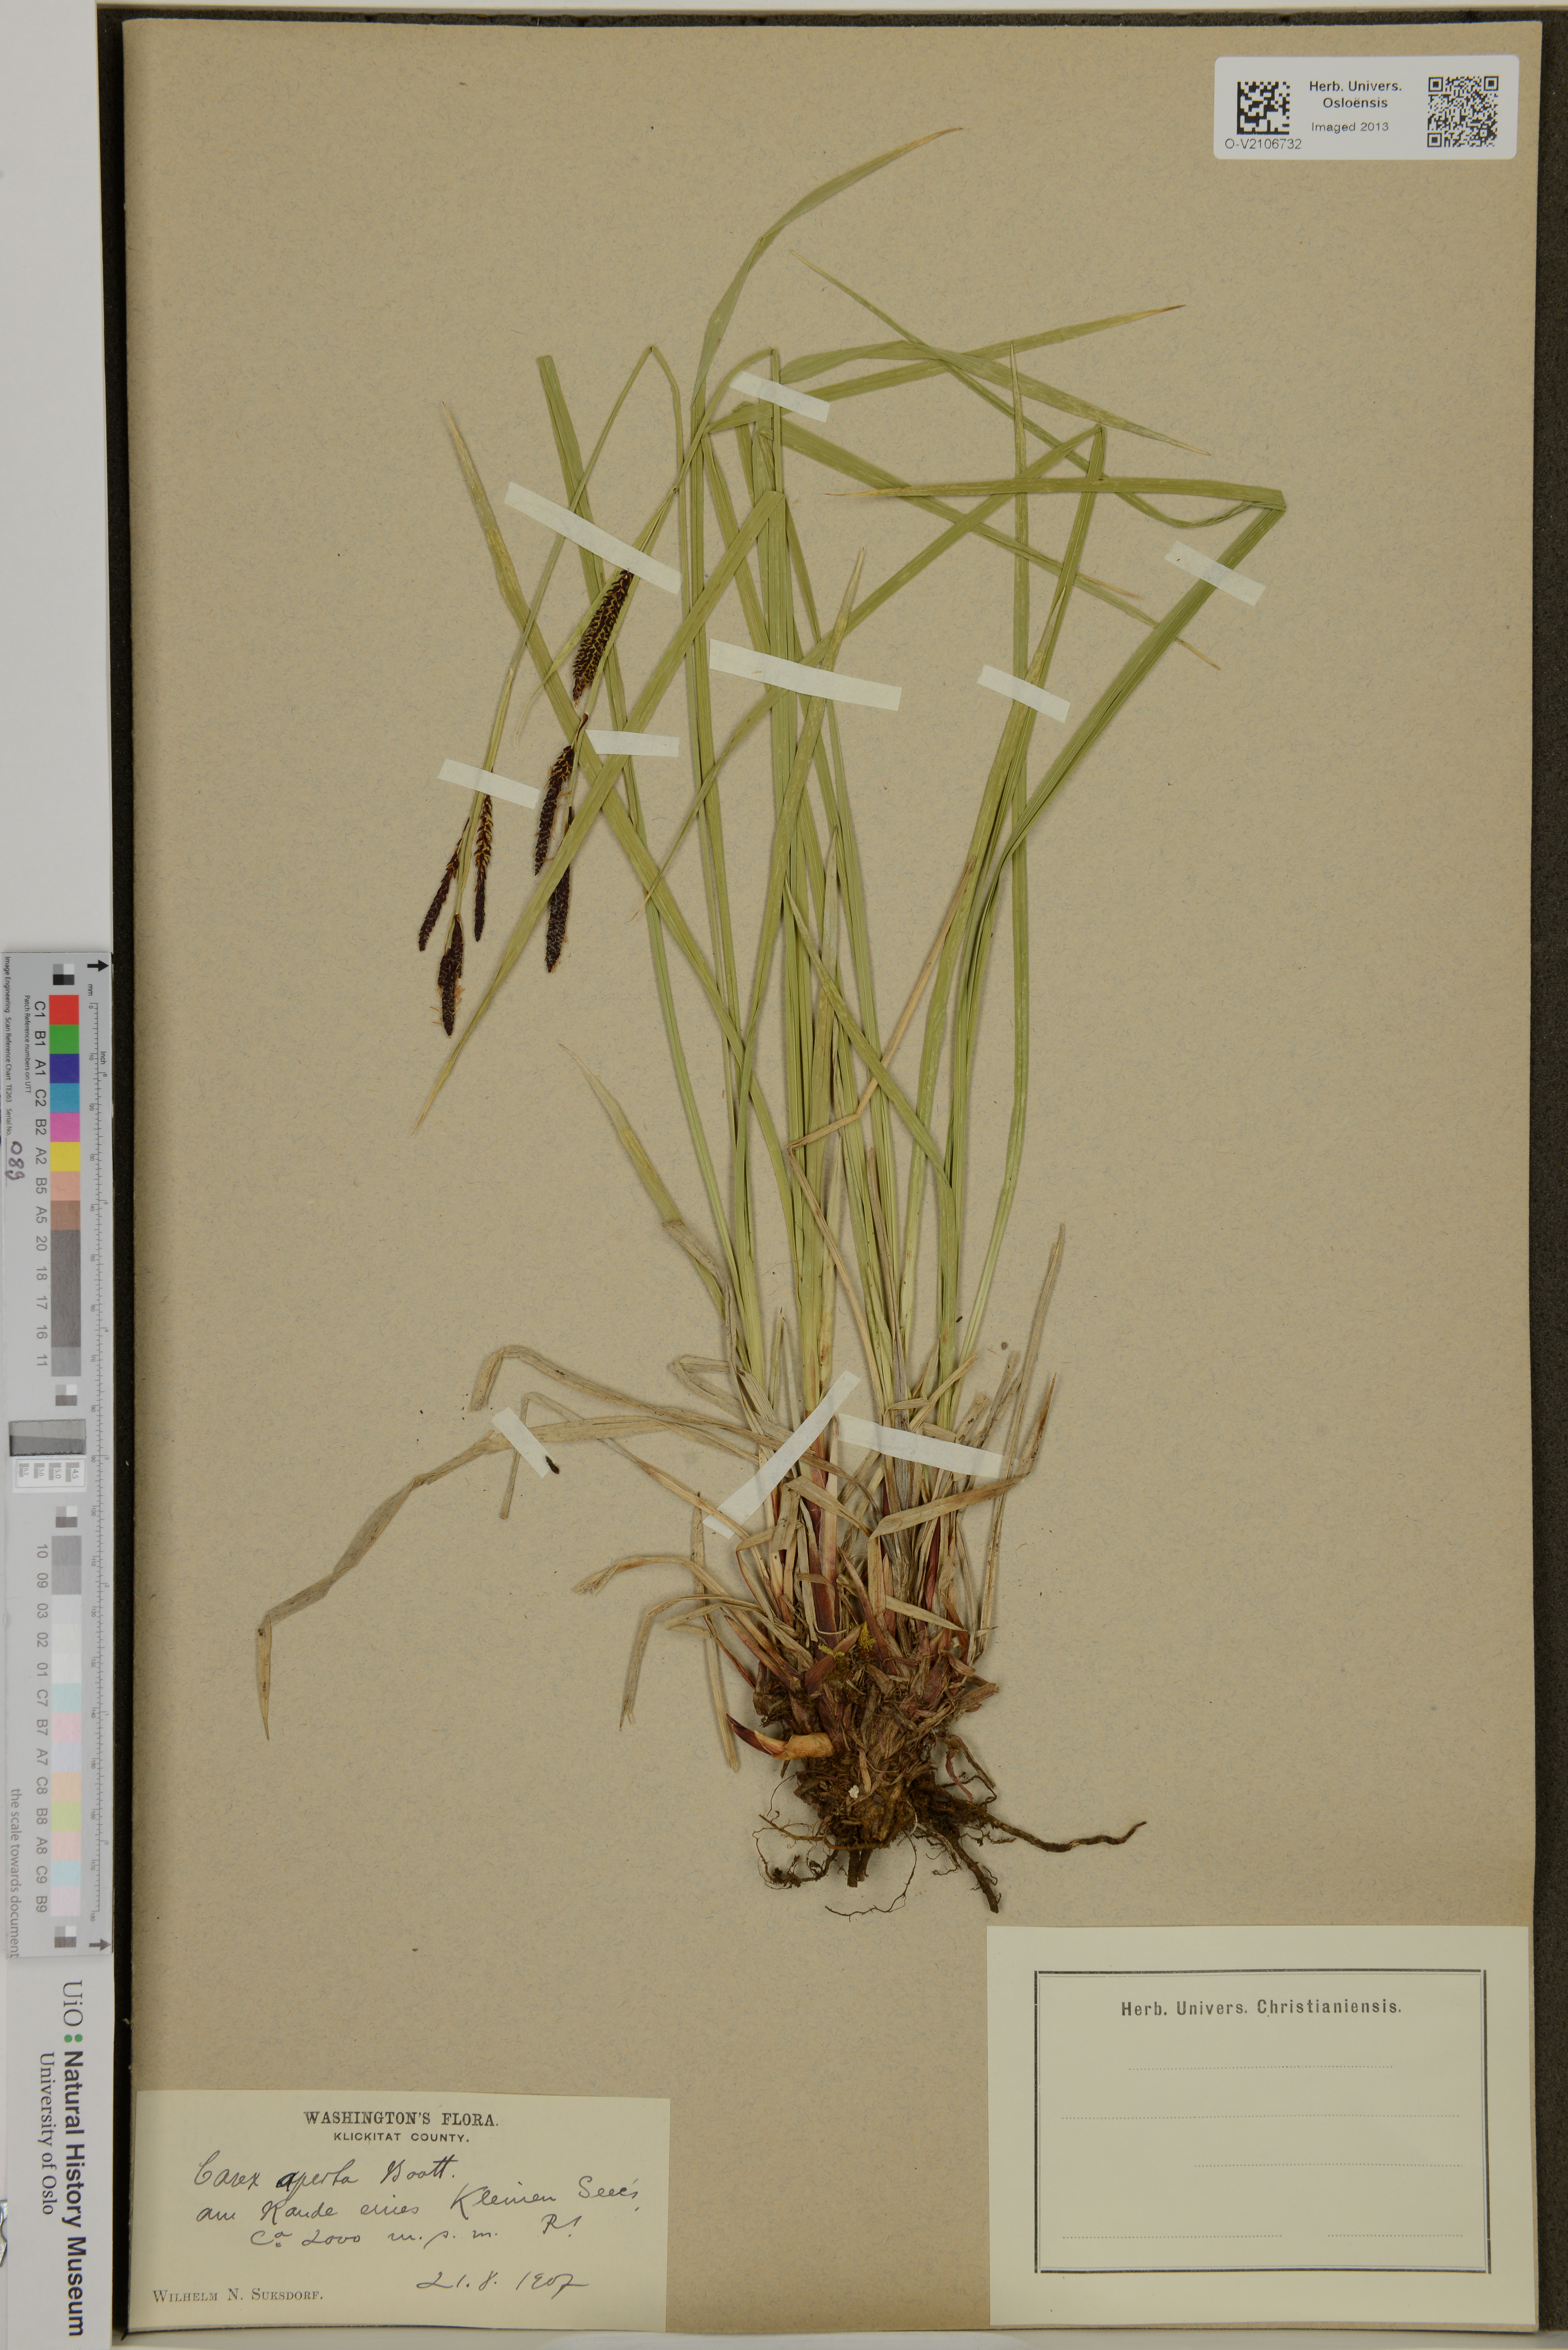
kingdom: Plantae
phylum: Tracheophyta
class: Liliopsida
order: Poales
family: Cyperaceae
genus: Carex
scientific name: Carex aperta
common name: Columbia sedge
